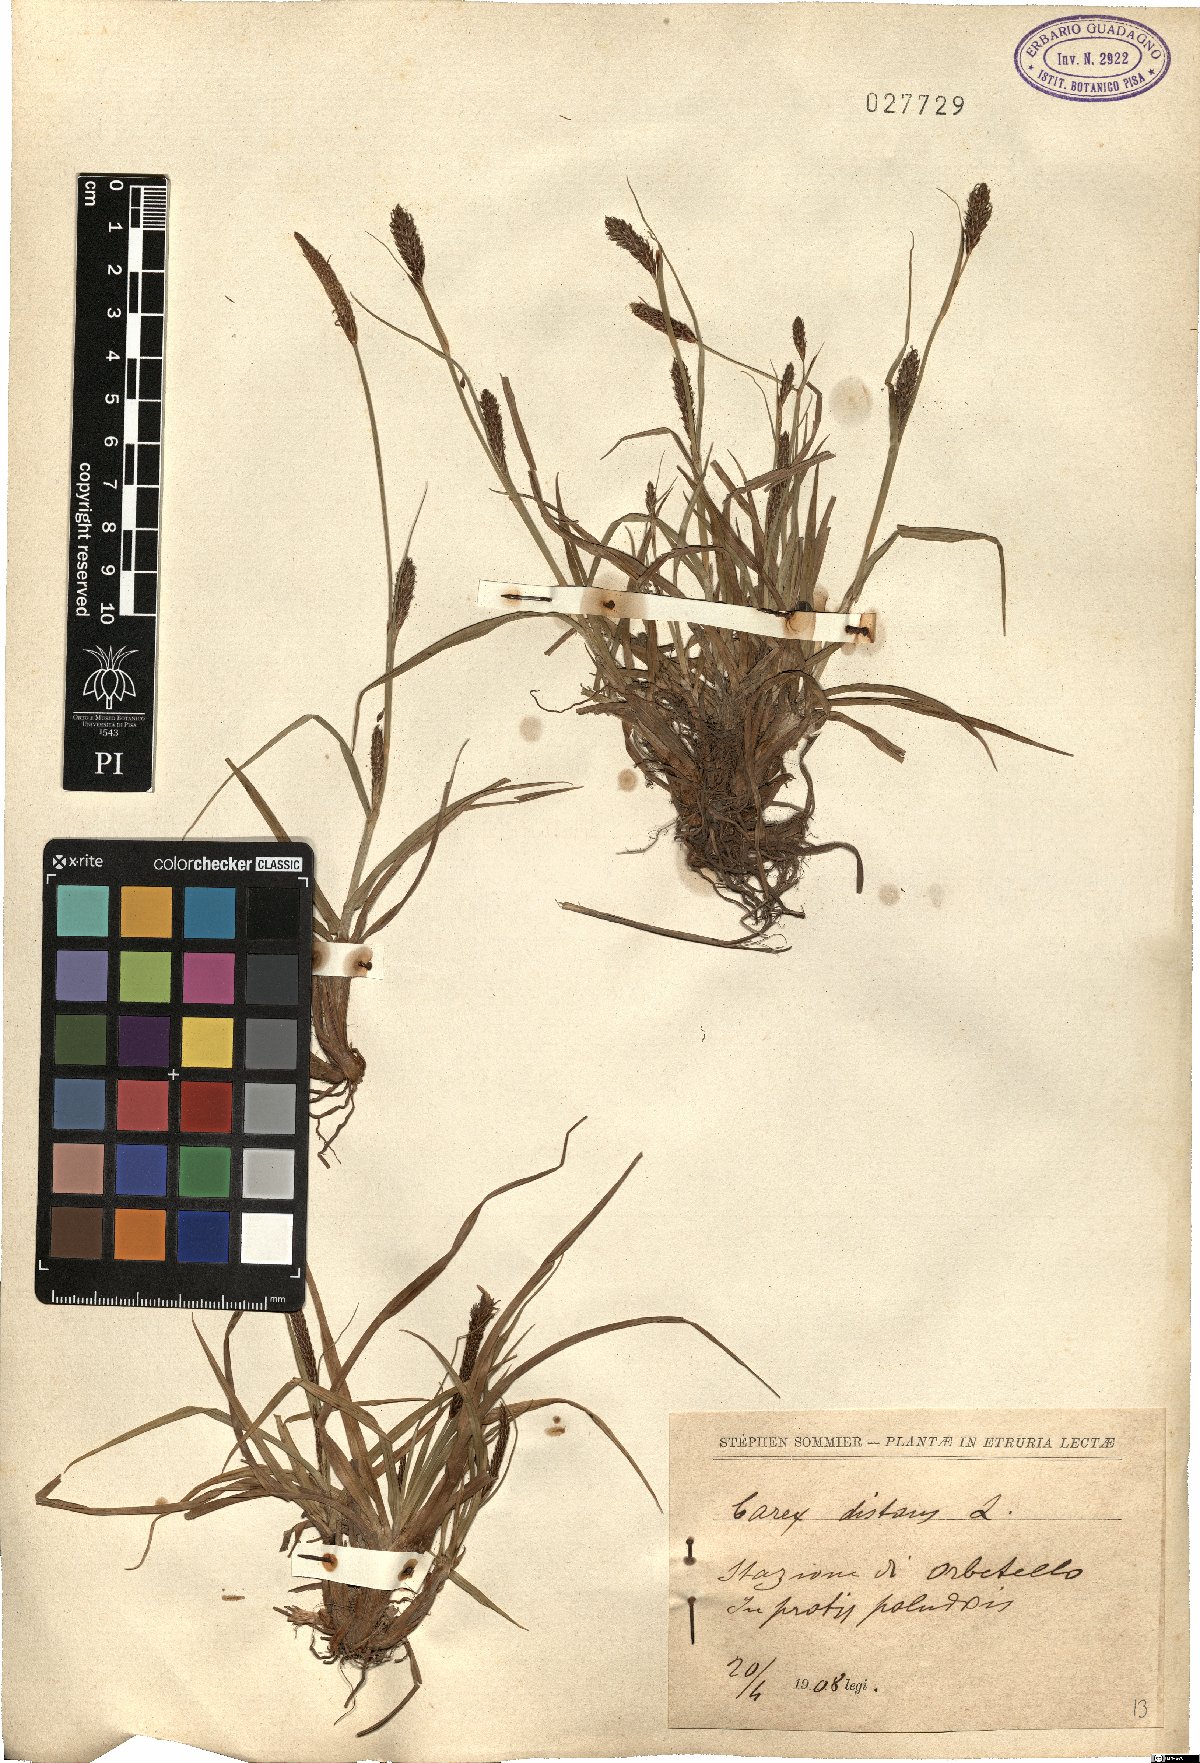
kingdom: Plantae
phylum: Tracheophyta
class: Liliopsida
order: Poales
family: Cyperaceae
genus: Carex
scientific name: Carex distans
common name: Distant sedge
